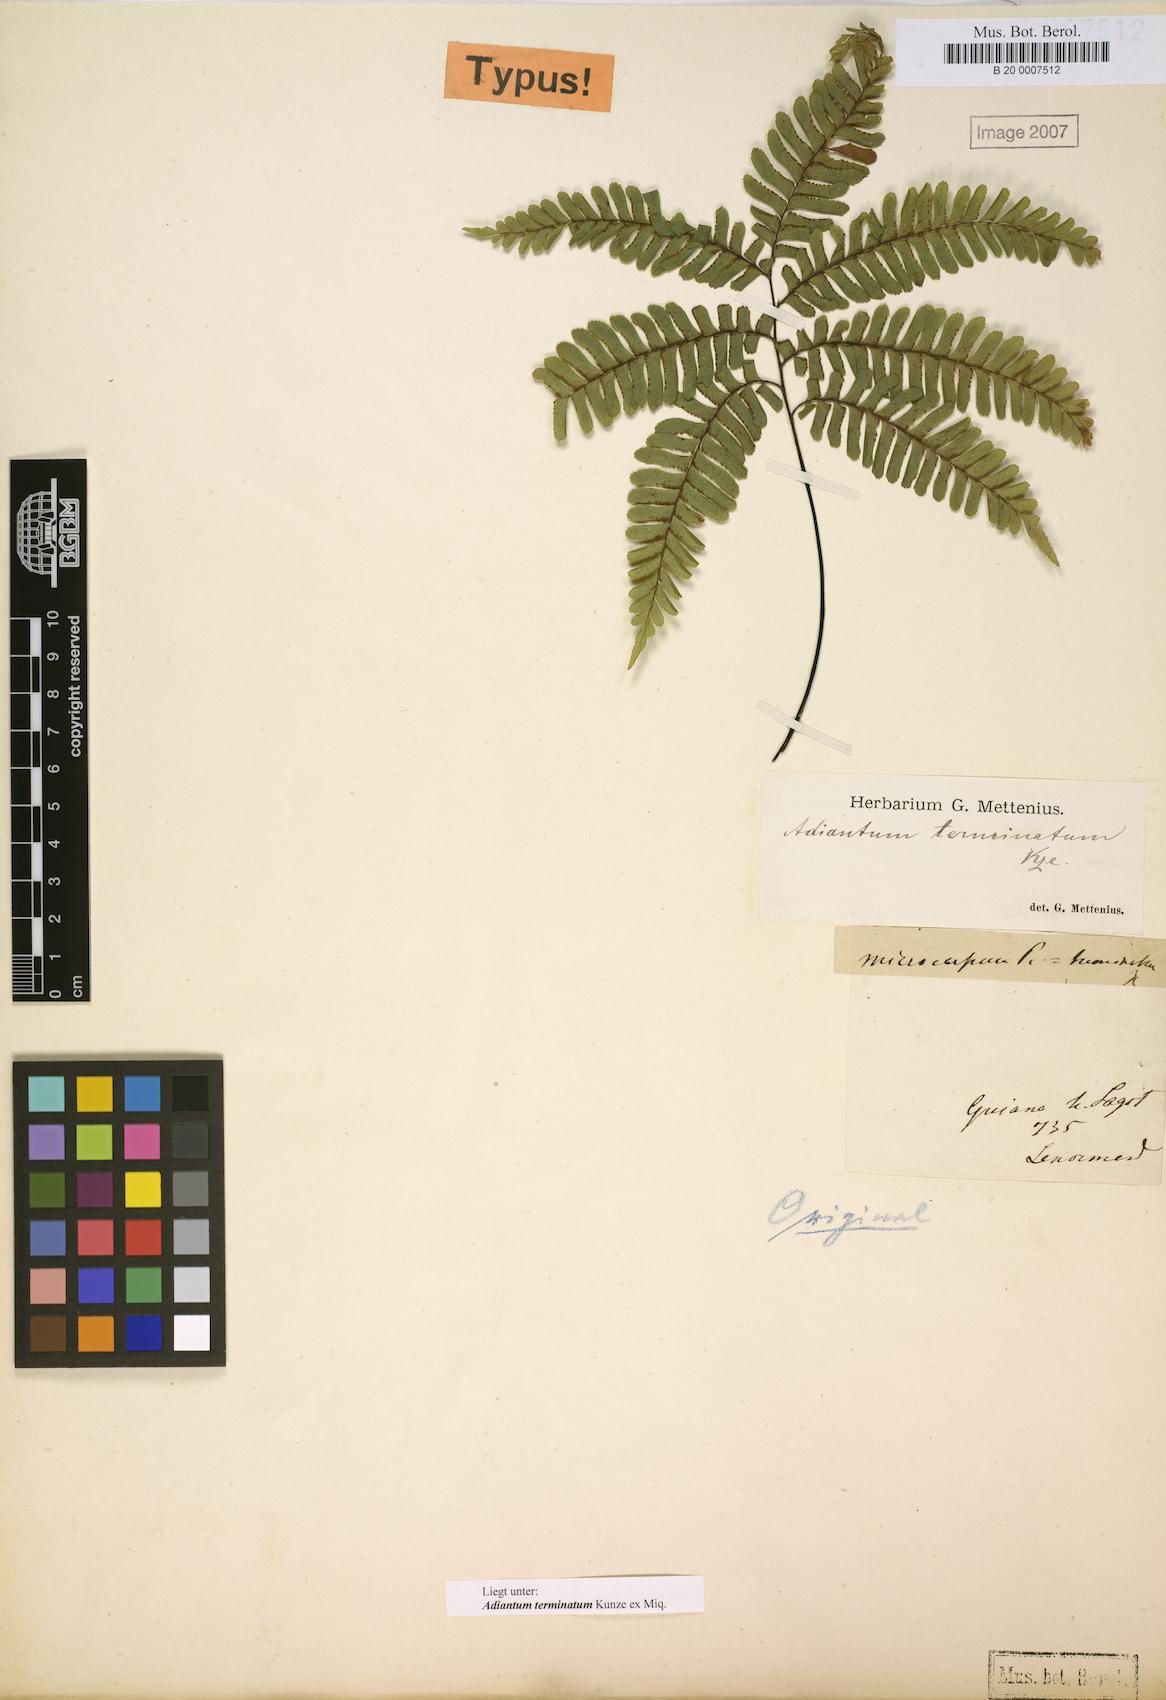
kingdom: Plantae
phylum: Tracheophyta
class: Polypodiopsida
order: Polypodiales
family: Pteridaceae
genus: Adiantum
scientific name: Adiantum terminatum
